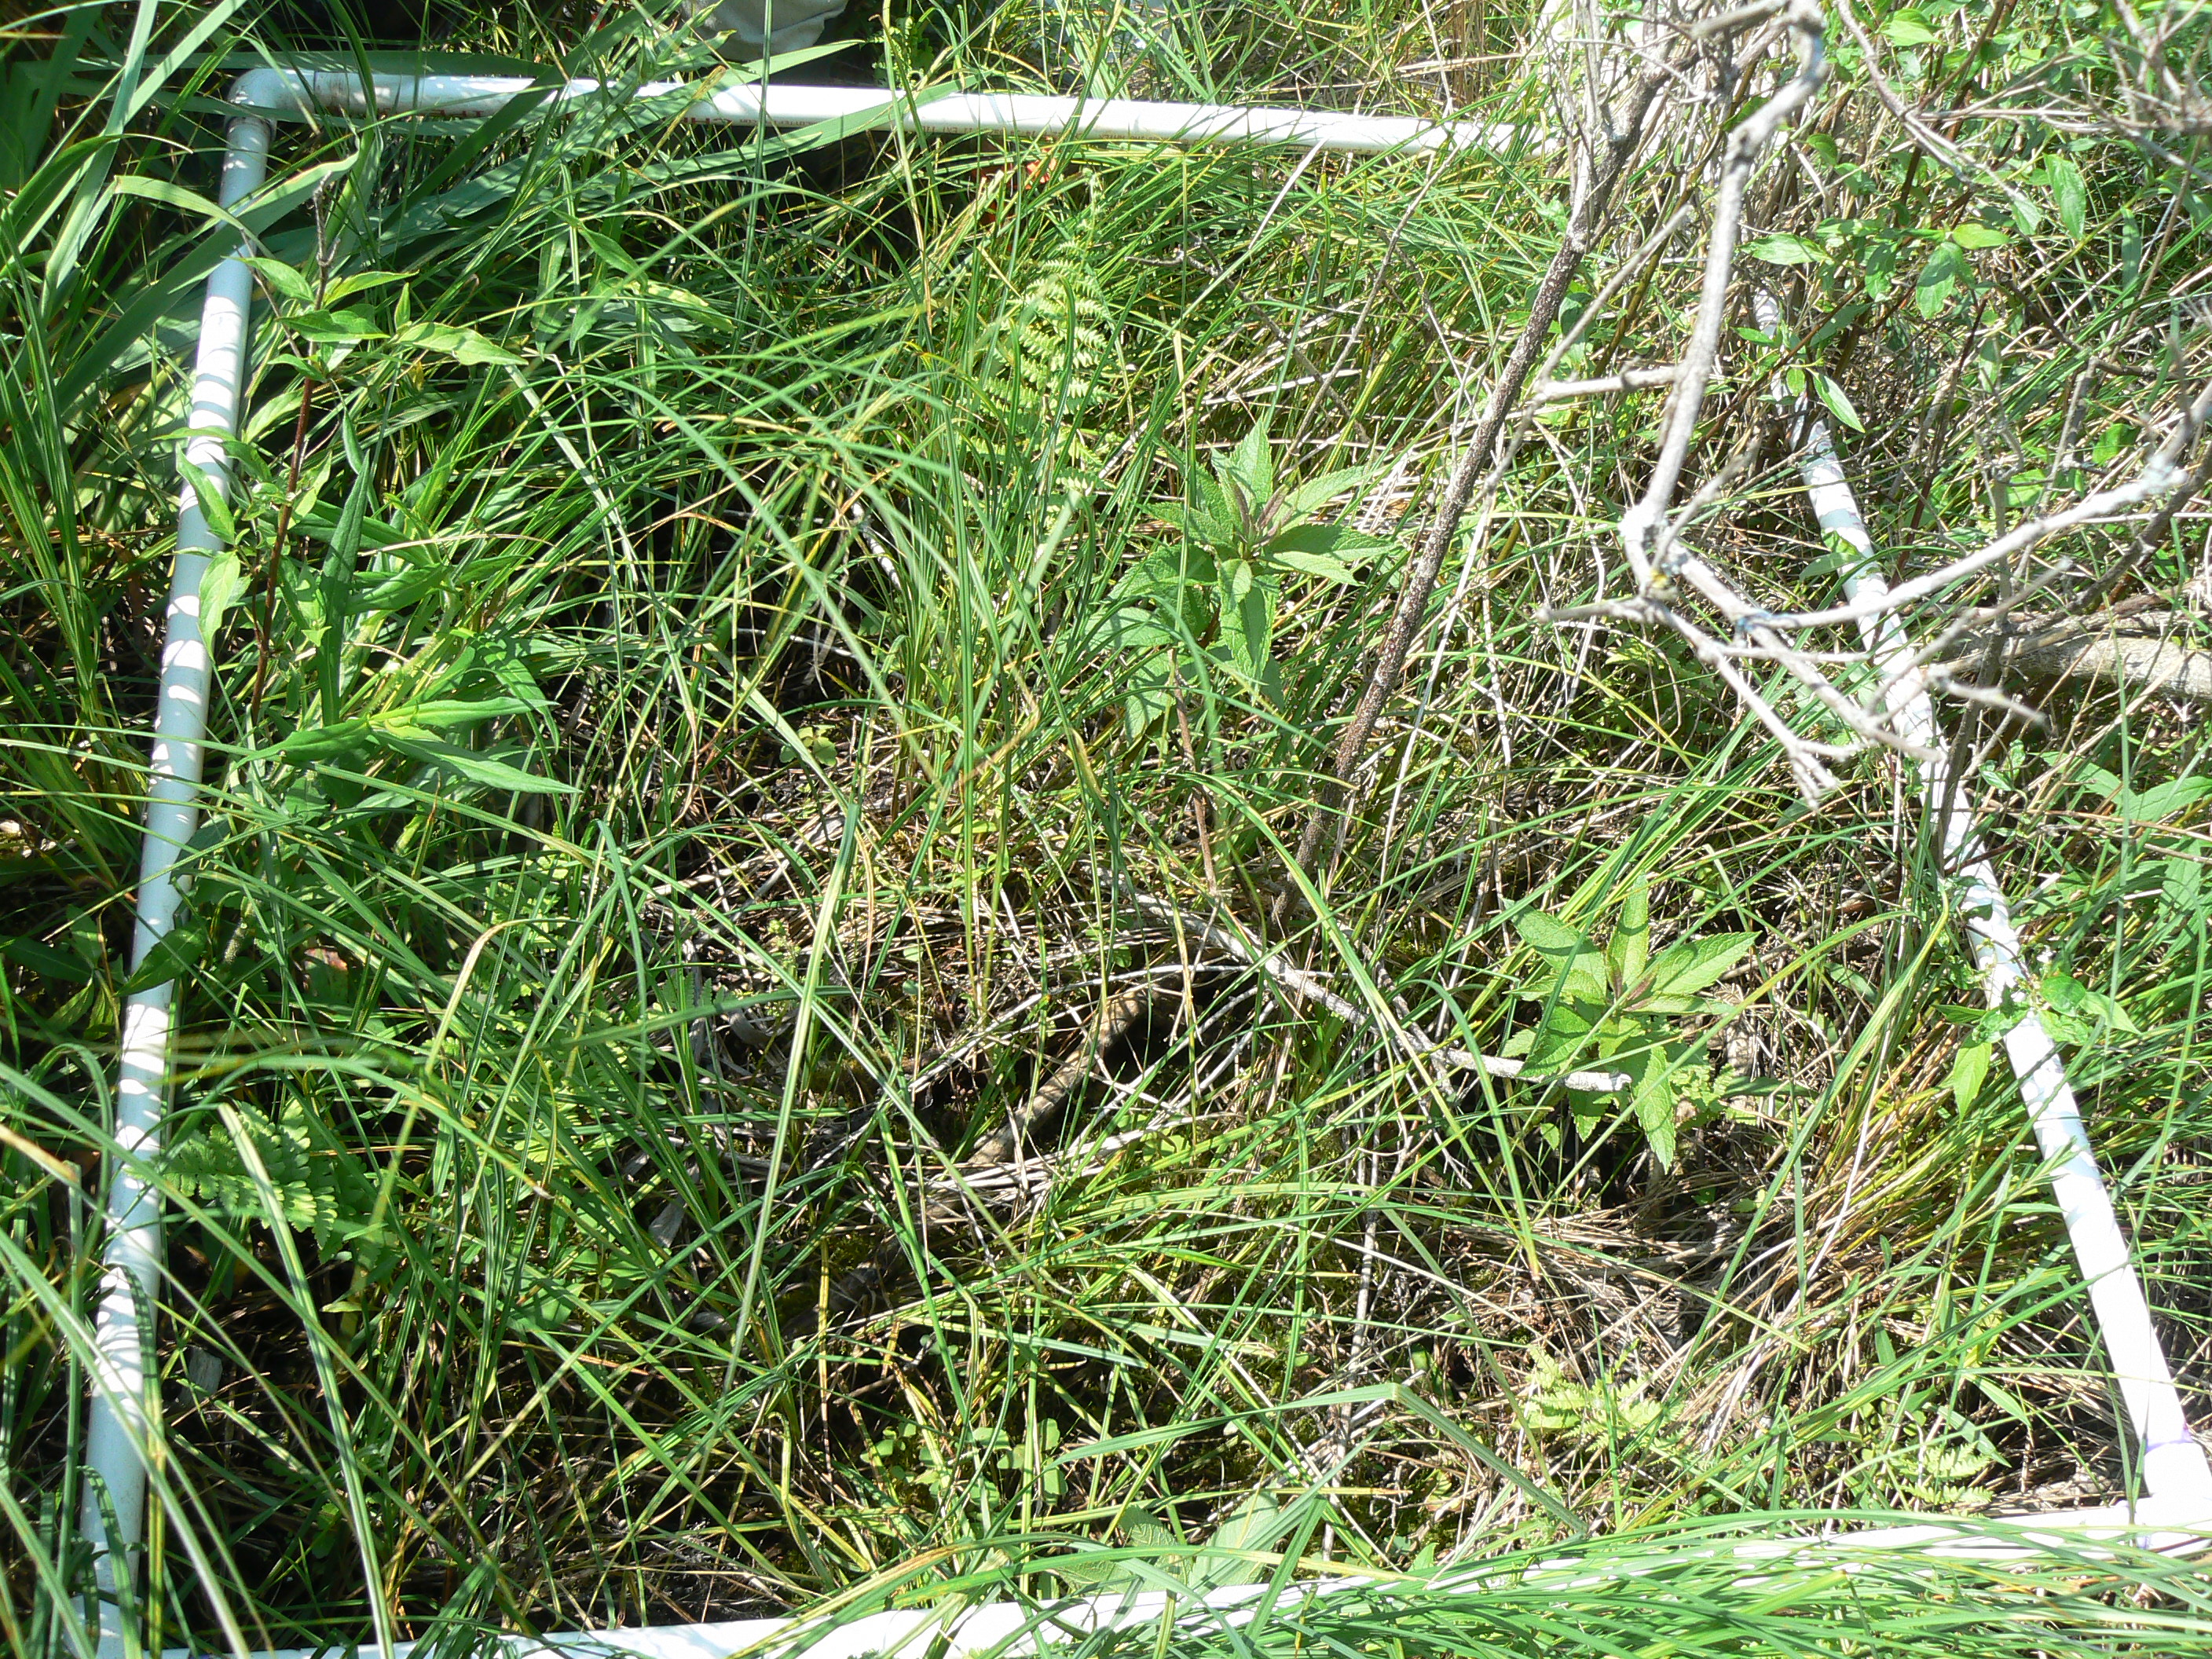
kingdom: Plantae
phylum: Tracheophyta
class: Polypodiopsida
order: Polypodiales
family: Thelypteridaceae
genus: Thelypteris
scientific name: Thelypteris palustris
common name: Marsh fern
